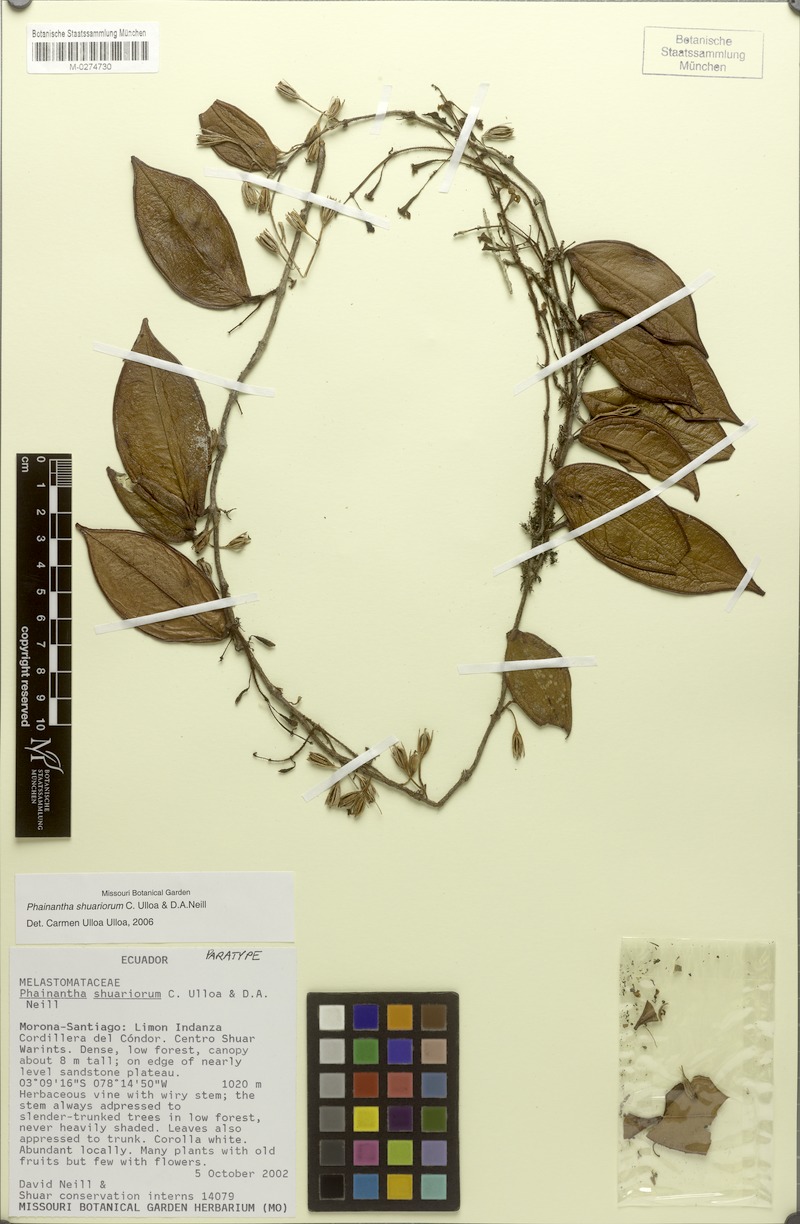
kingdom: Plantae
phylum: Tracheophyta
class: Magnoliopsida
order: Myrtales
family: Melastomataceae
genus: Phainantha
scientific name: Phainantha shuariorum
